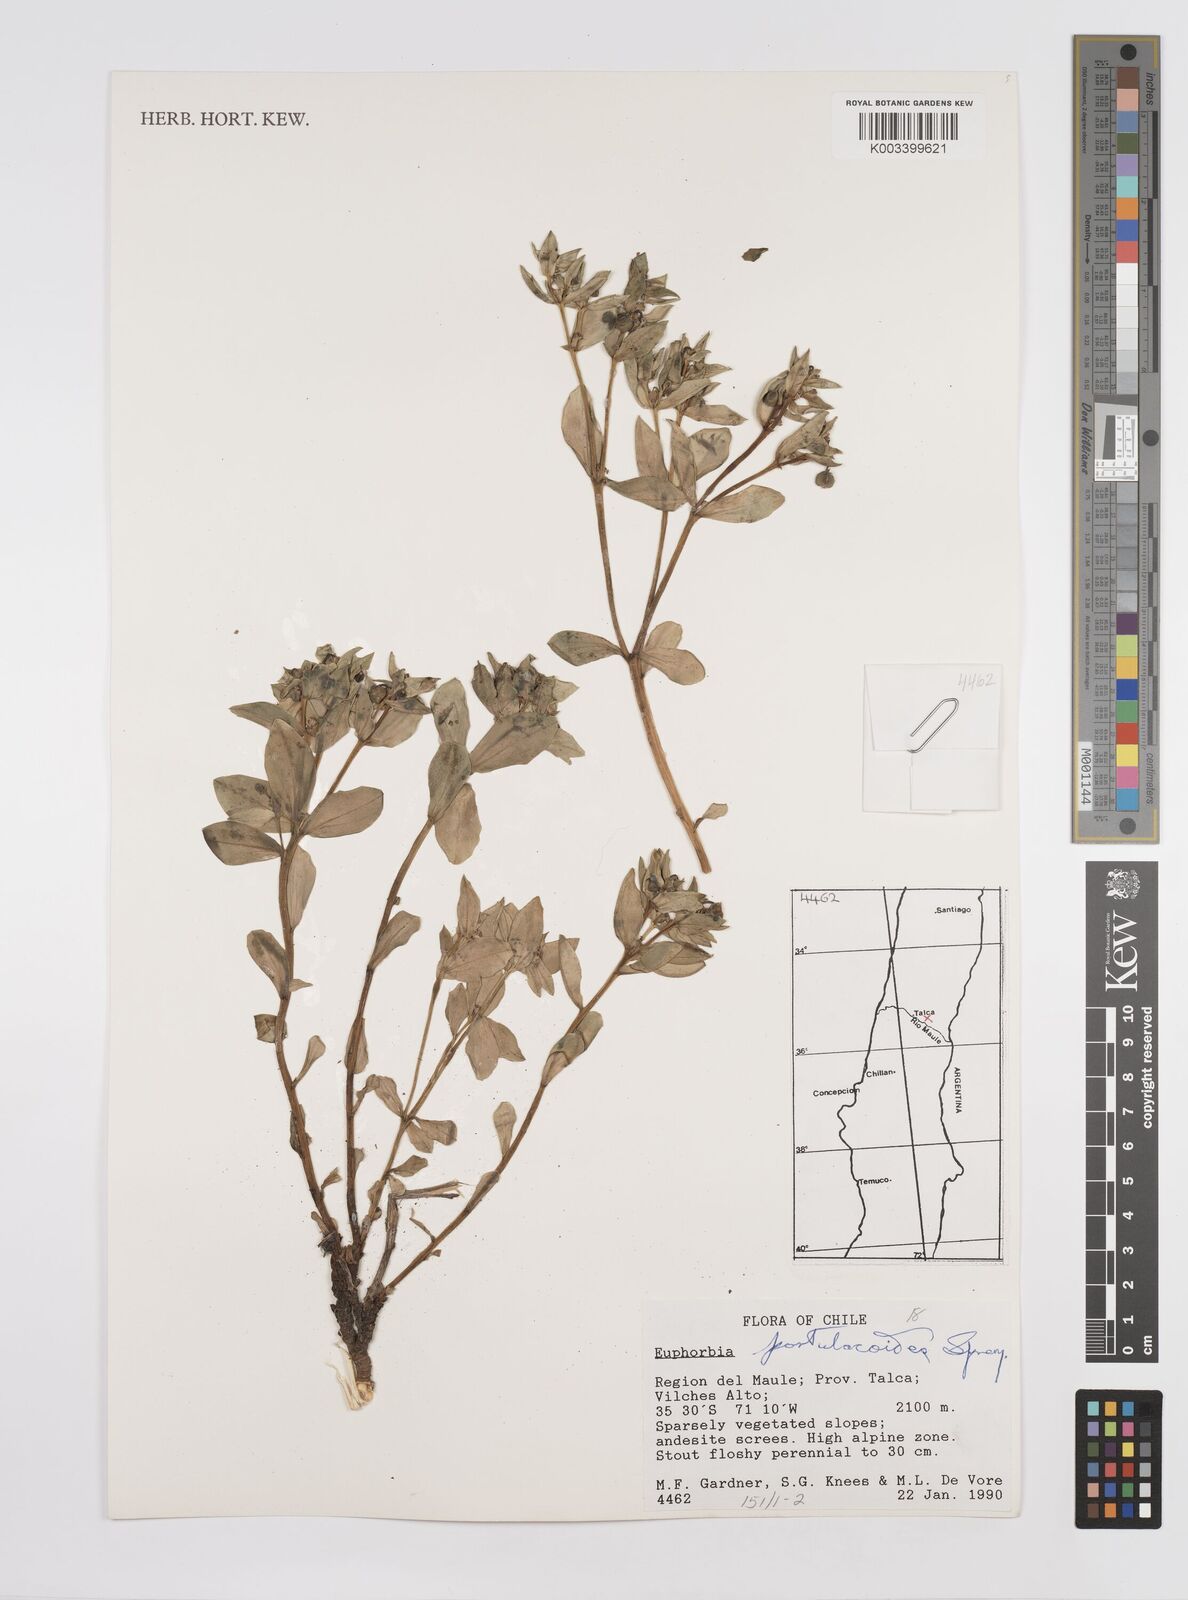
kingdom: Plantae
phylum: Tracheophyta
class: Magnoliopsida
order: Malpighiales
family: Euphorbiaceae
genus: Euphorbia
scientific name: Euphorbia portulacoides
